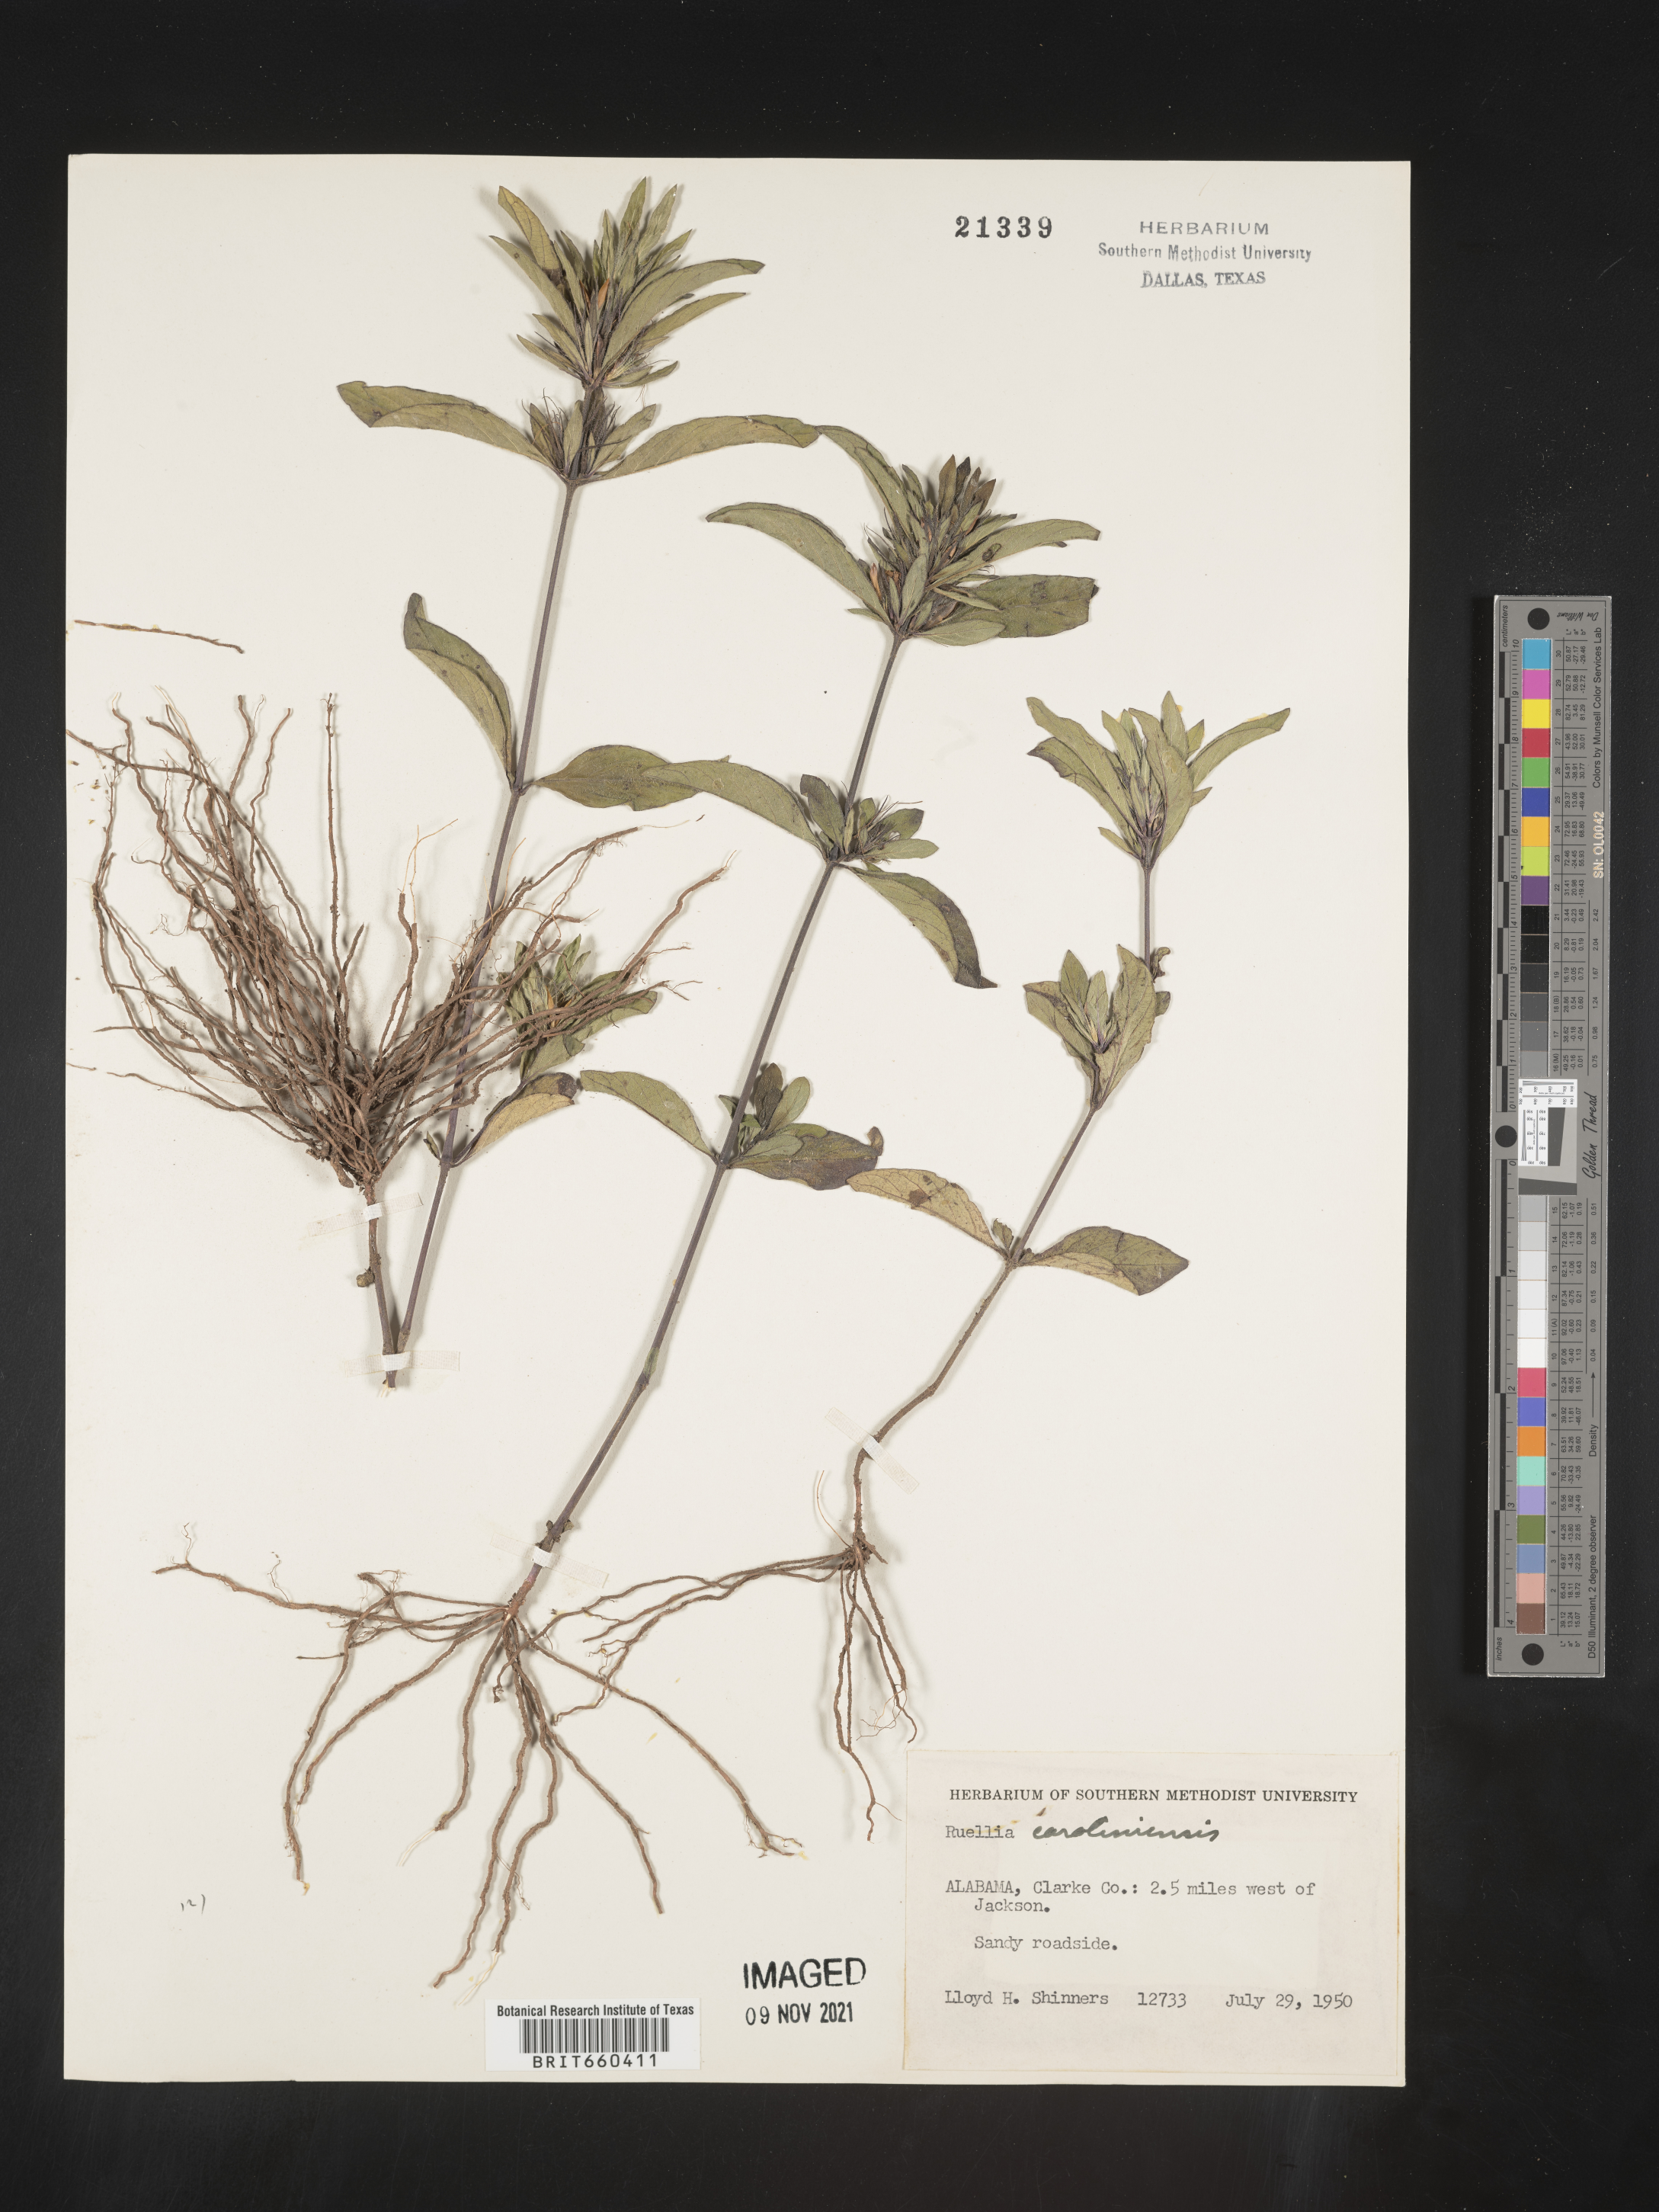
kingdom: Plantae
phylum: Tracheophyta
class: Magnoliopsida
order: Lamiales
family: Acanthaceae
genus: Ruellia
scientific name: Ruellia caroliniensis
